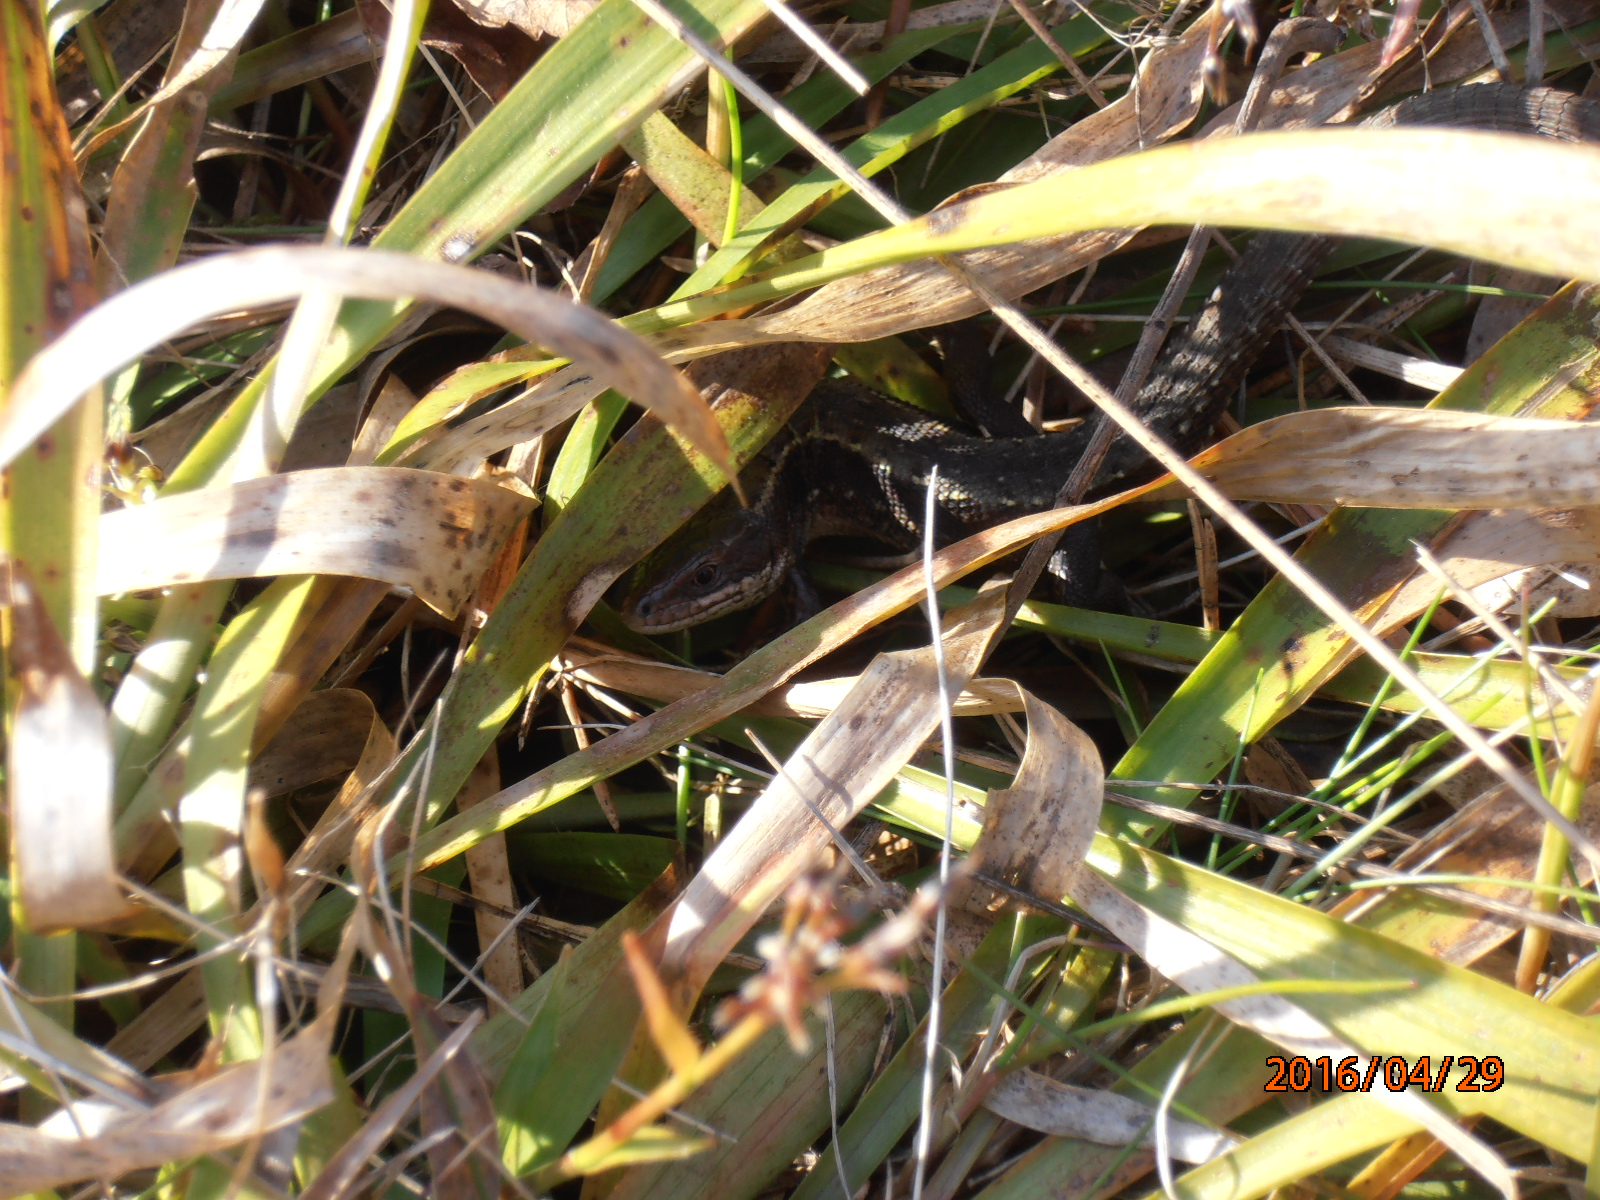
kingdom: Animalia
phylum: Chordata
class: Squamata
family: Lacertidae
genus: Zootoca
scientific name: Zootoca vivipara
